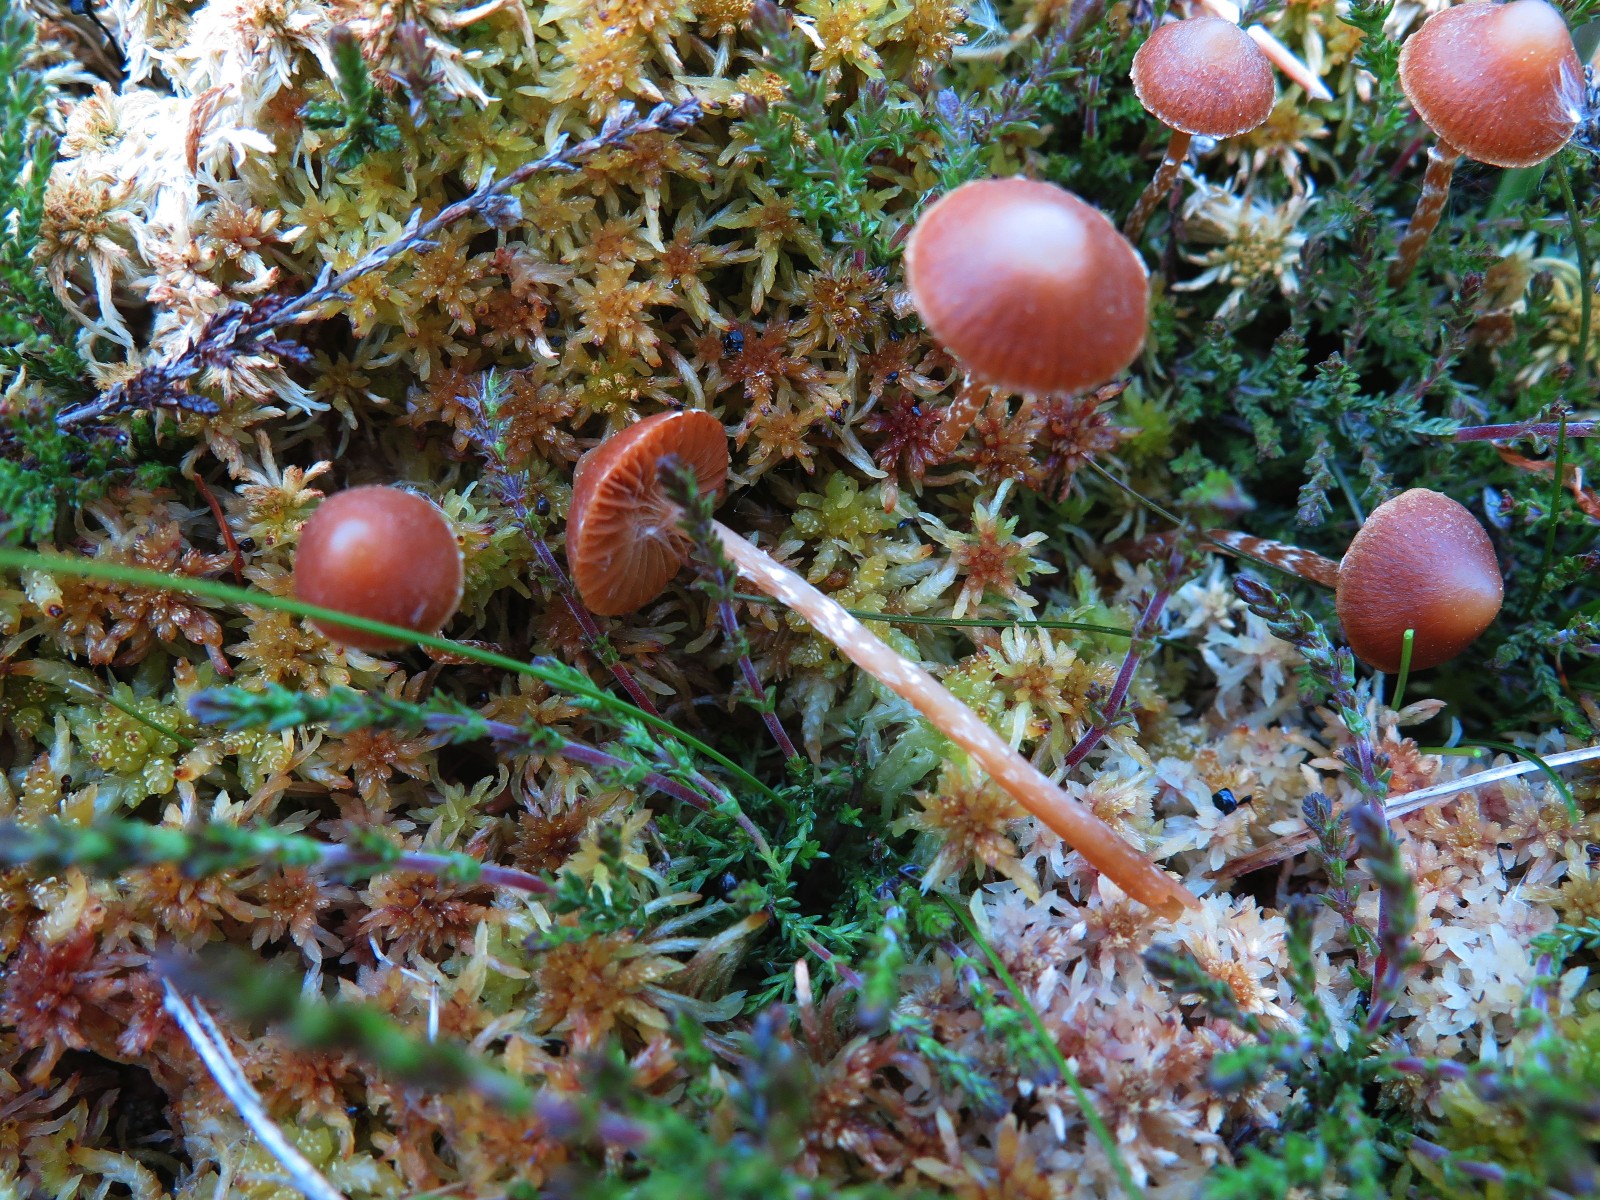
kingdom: Fungi
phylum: Basidiomycota
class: Agaricomycetes
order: Agaricales
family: Hymenogastraceae
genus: Galerina
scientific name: Galerina paludosa
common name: mose-hjelmhat
